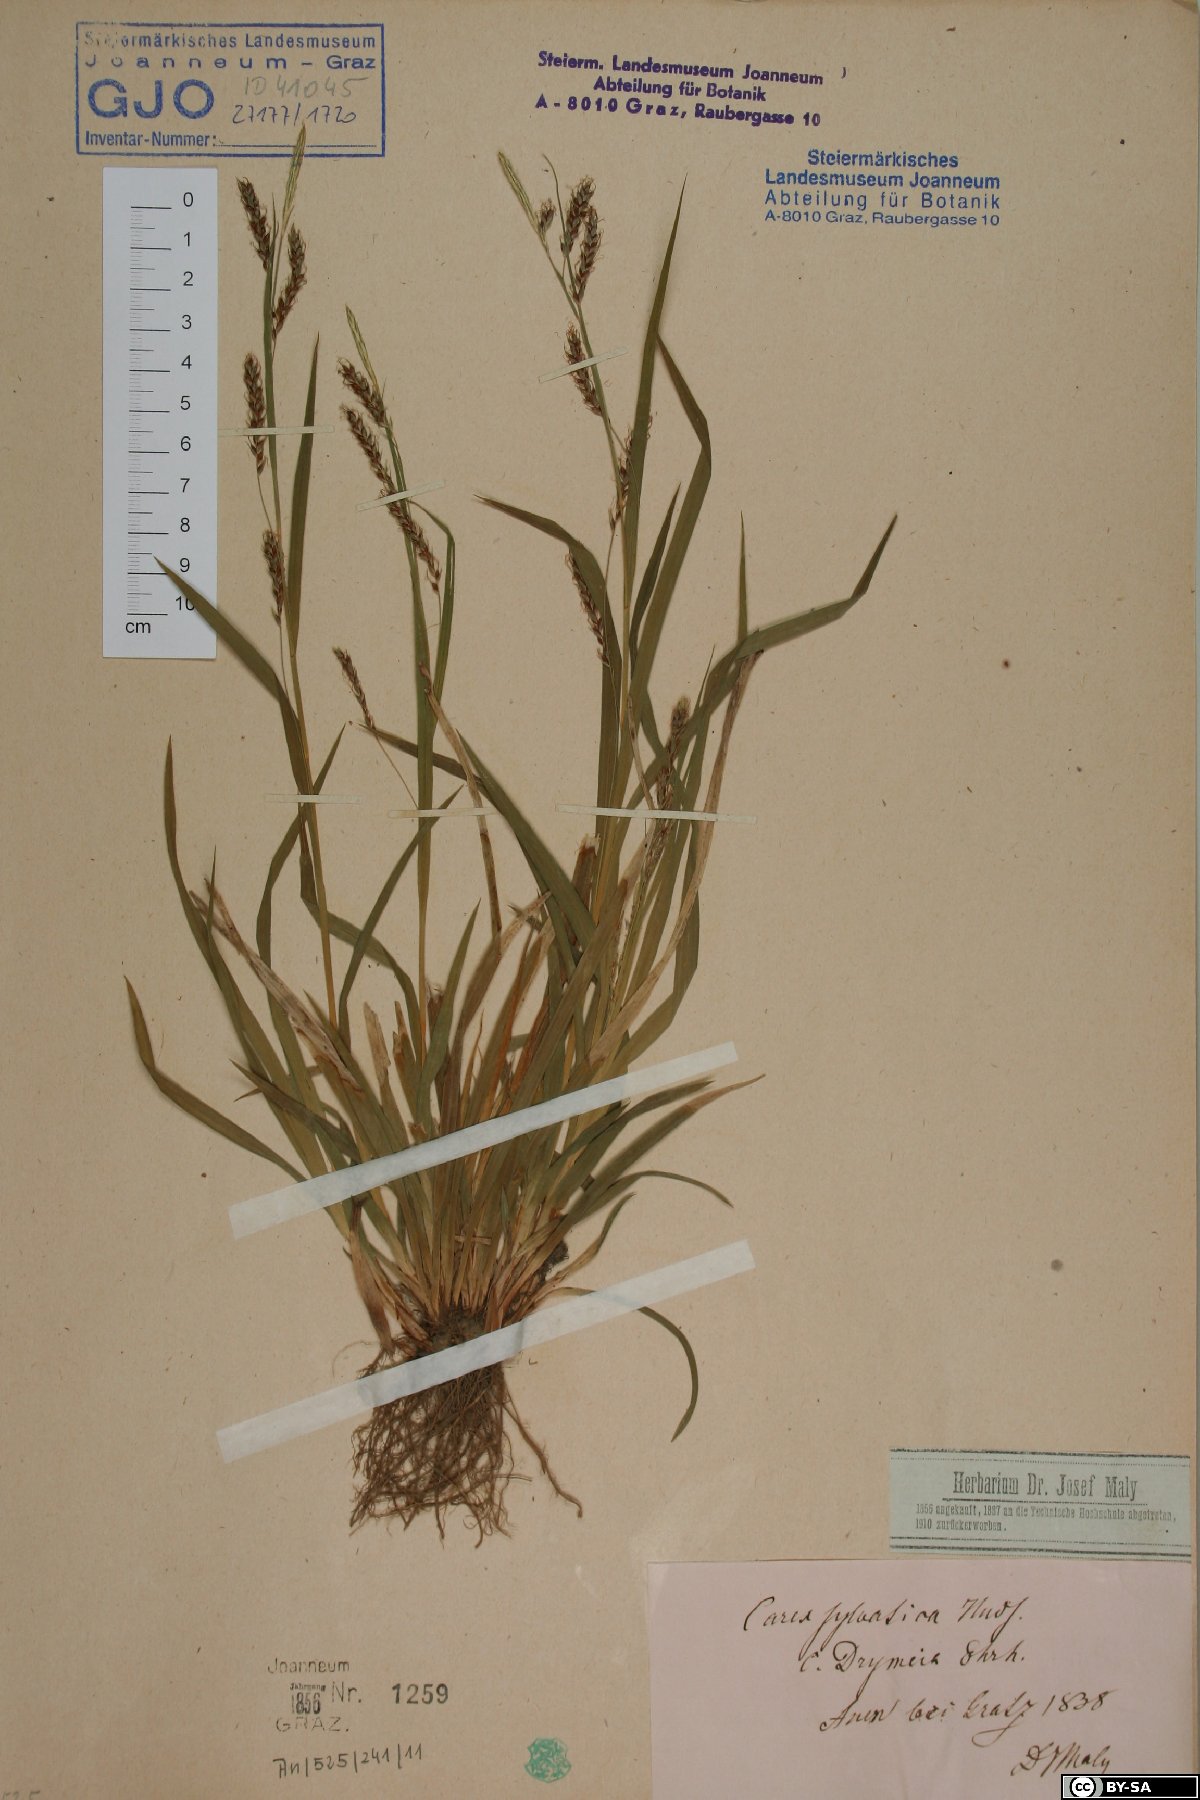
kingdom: Plantae
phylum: Tracheophyta
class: Liliopsida
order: Poales
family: Cyperaceae
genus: Carex
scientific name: Carex sylvatica
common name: Wood-sedge
